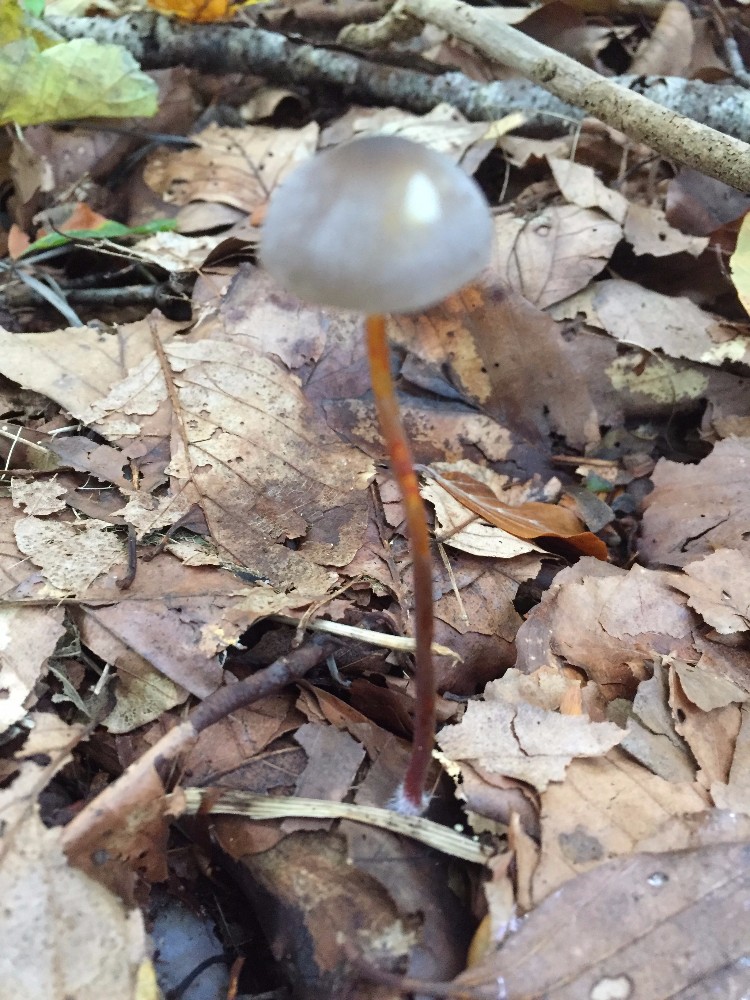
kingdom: Fungi
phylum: Basidiomycota
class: Agaricomycetes
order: Agaricales
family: Mycenaceae
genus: Mycena
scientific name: Mycena crocata
